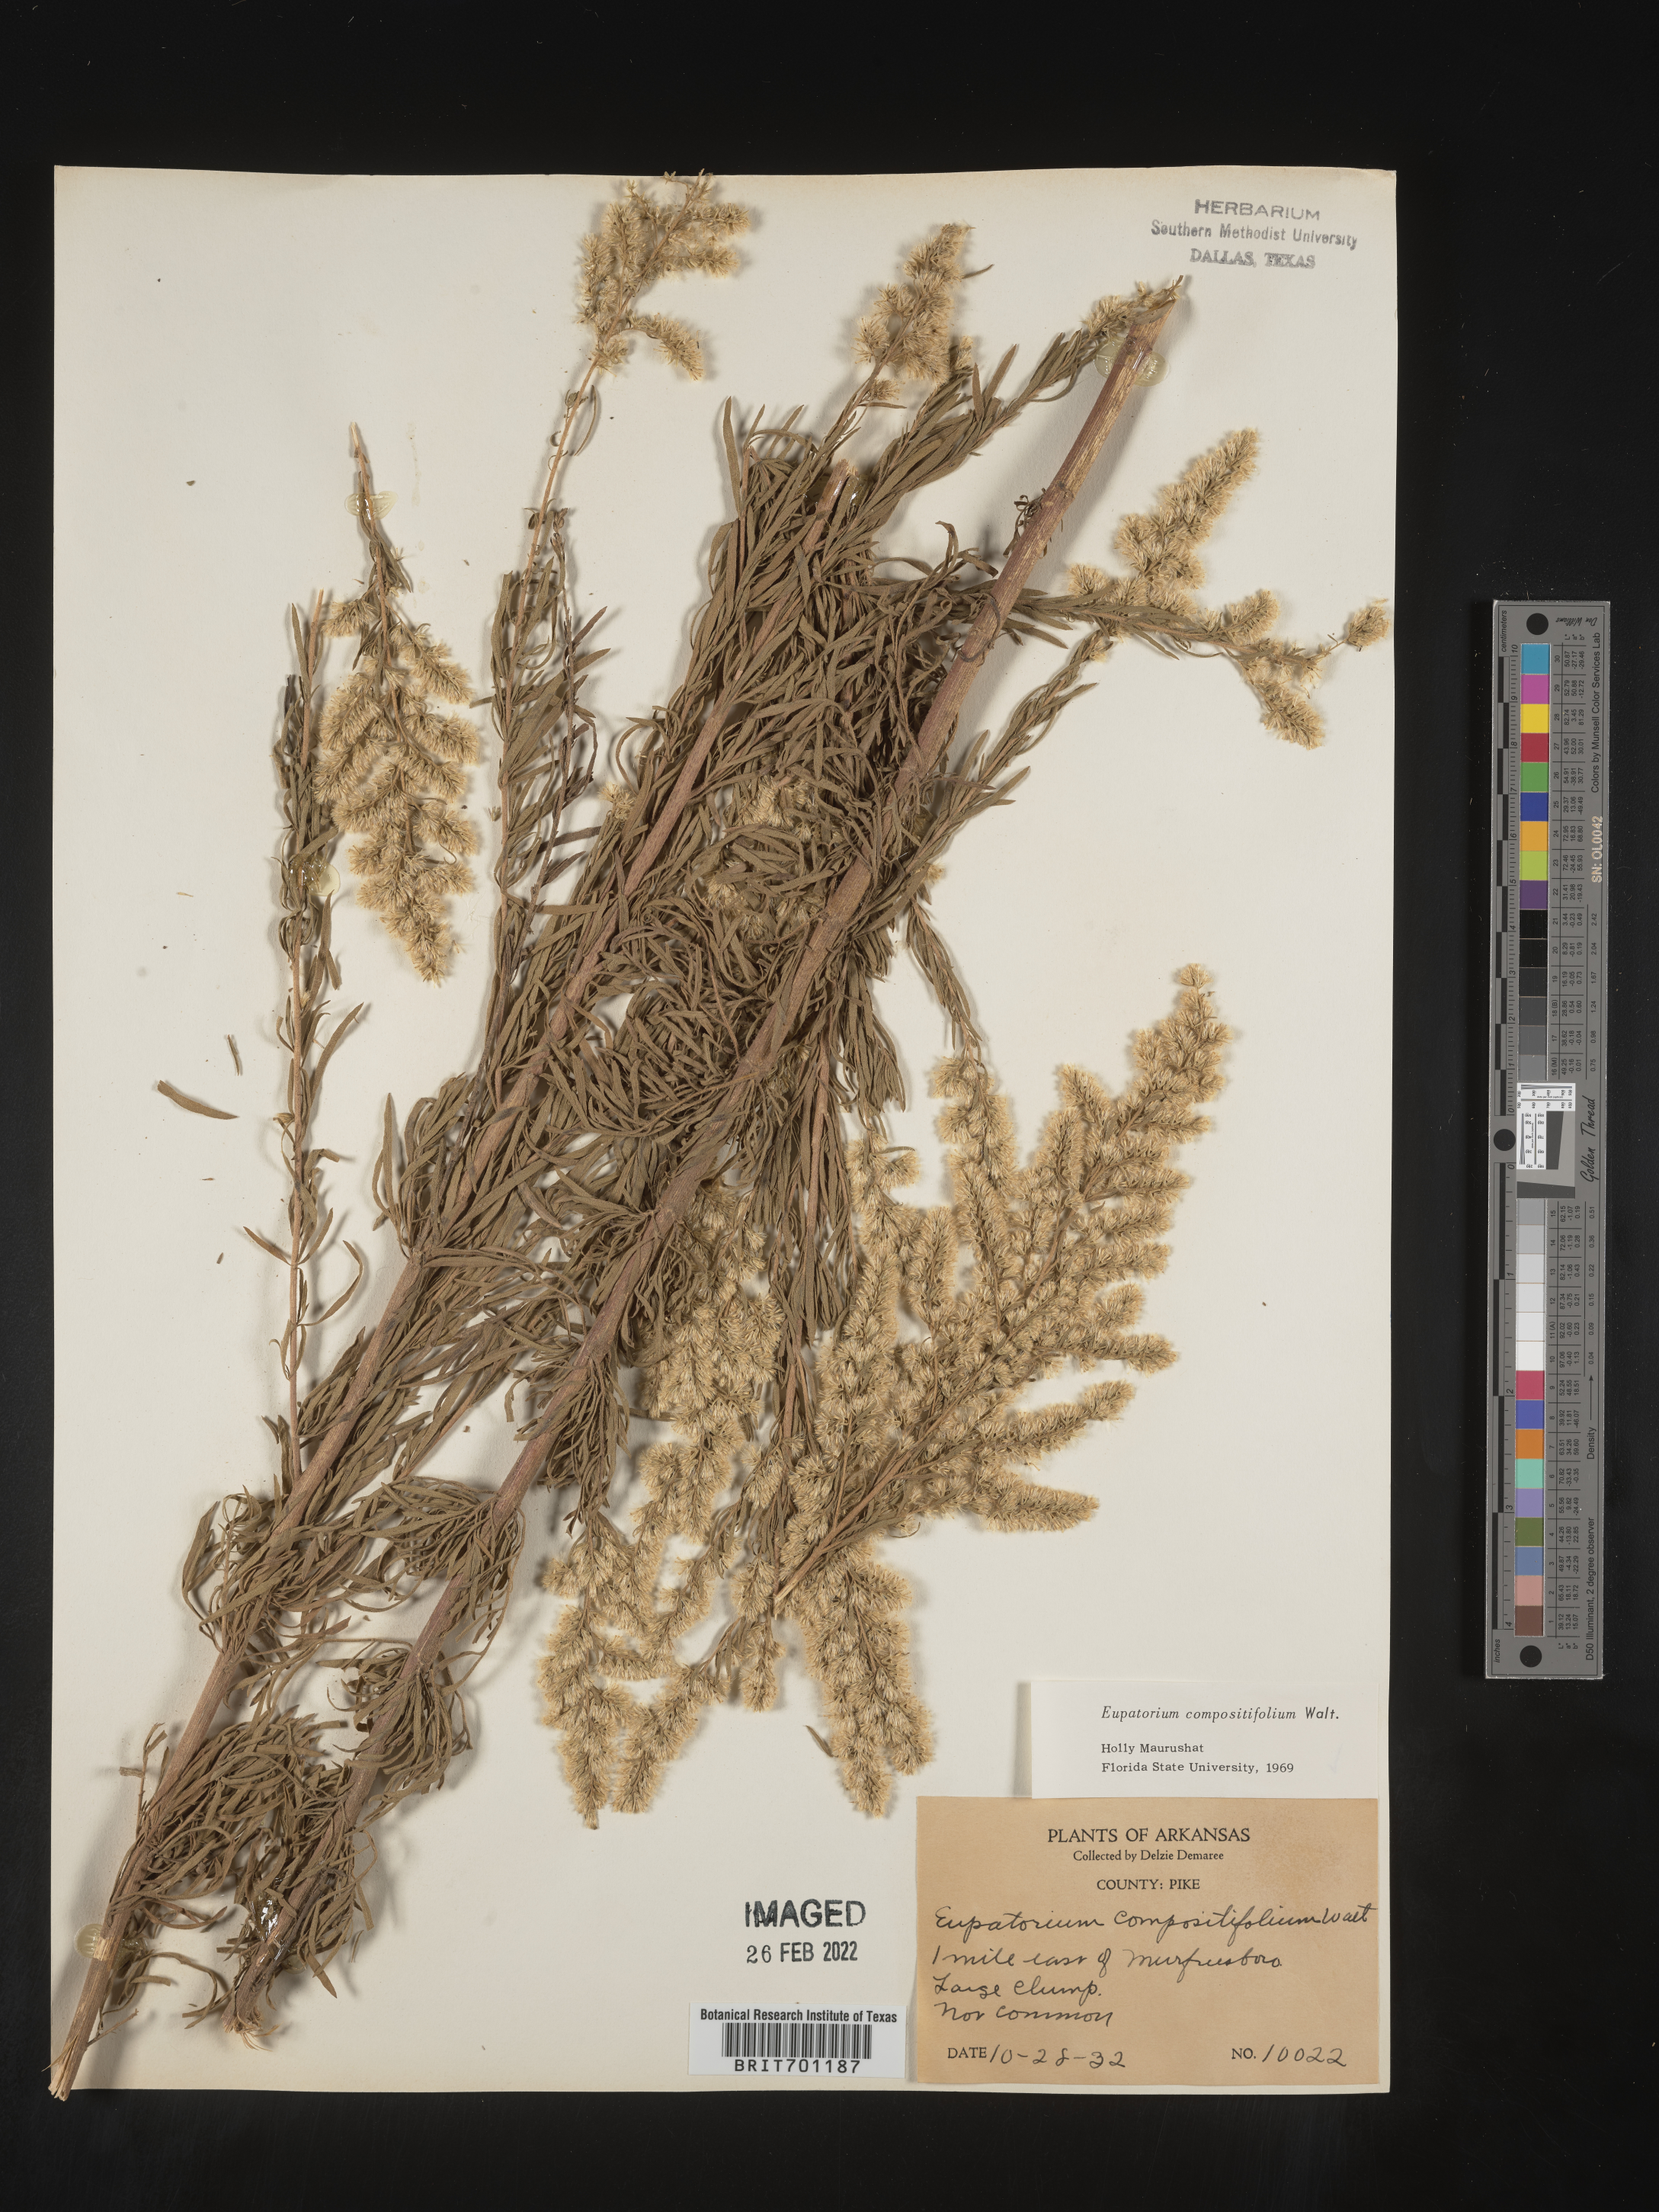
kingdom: Plantae
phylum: Tracheophyta
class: Magnoliopsida
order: Asterales
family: Asteraceae
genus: Eupatorium
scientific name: Eupatorium compositifolium
